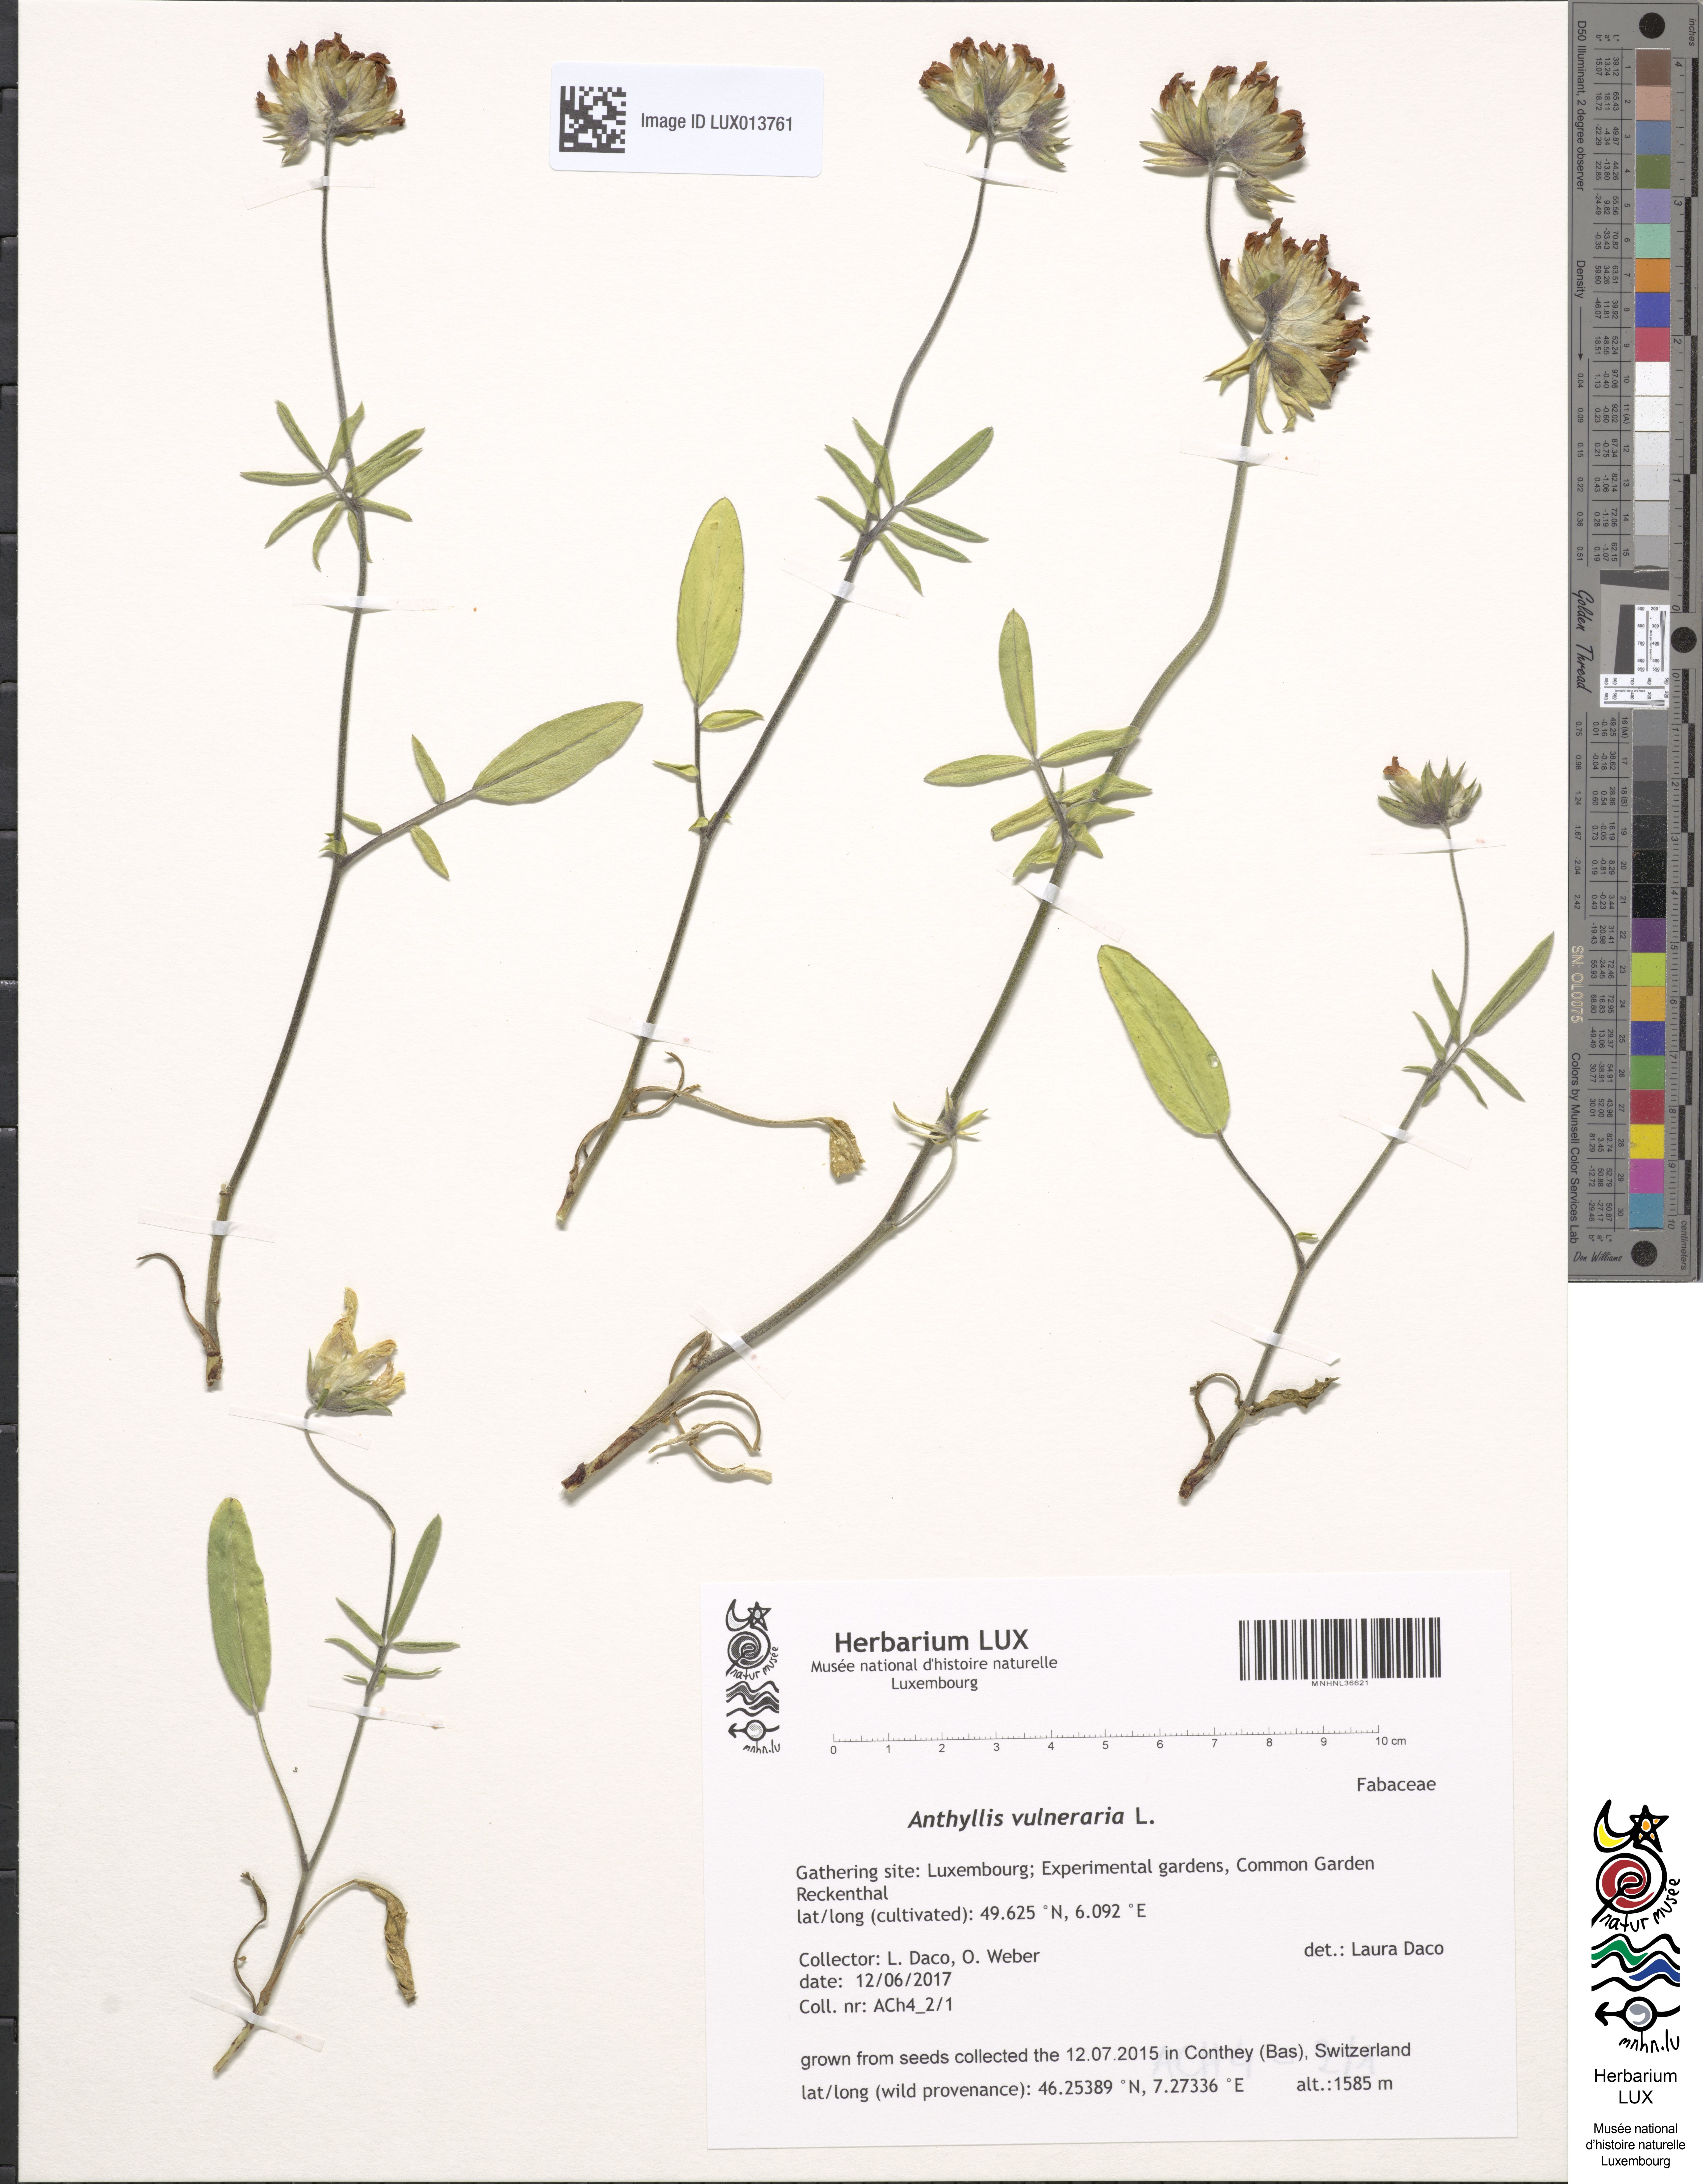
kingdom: Plantae
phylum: Tracheophyta
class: Magnoliopsida
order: Fabales
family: Fabaceae
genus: Anthyllis
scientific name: Anthyllis vulneraria
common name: Kidney vetch
